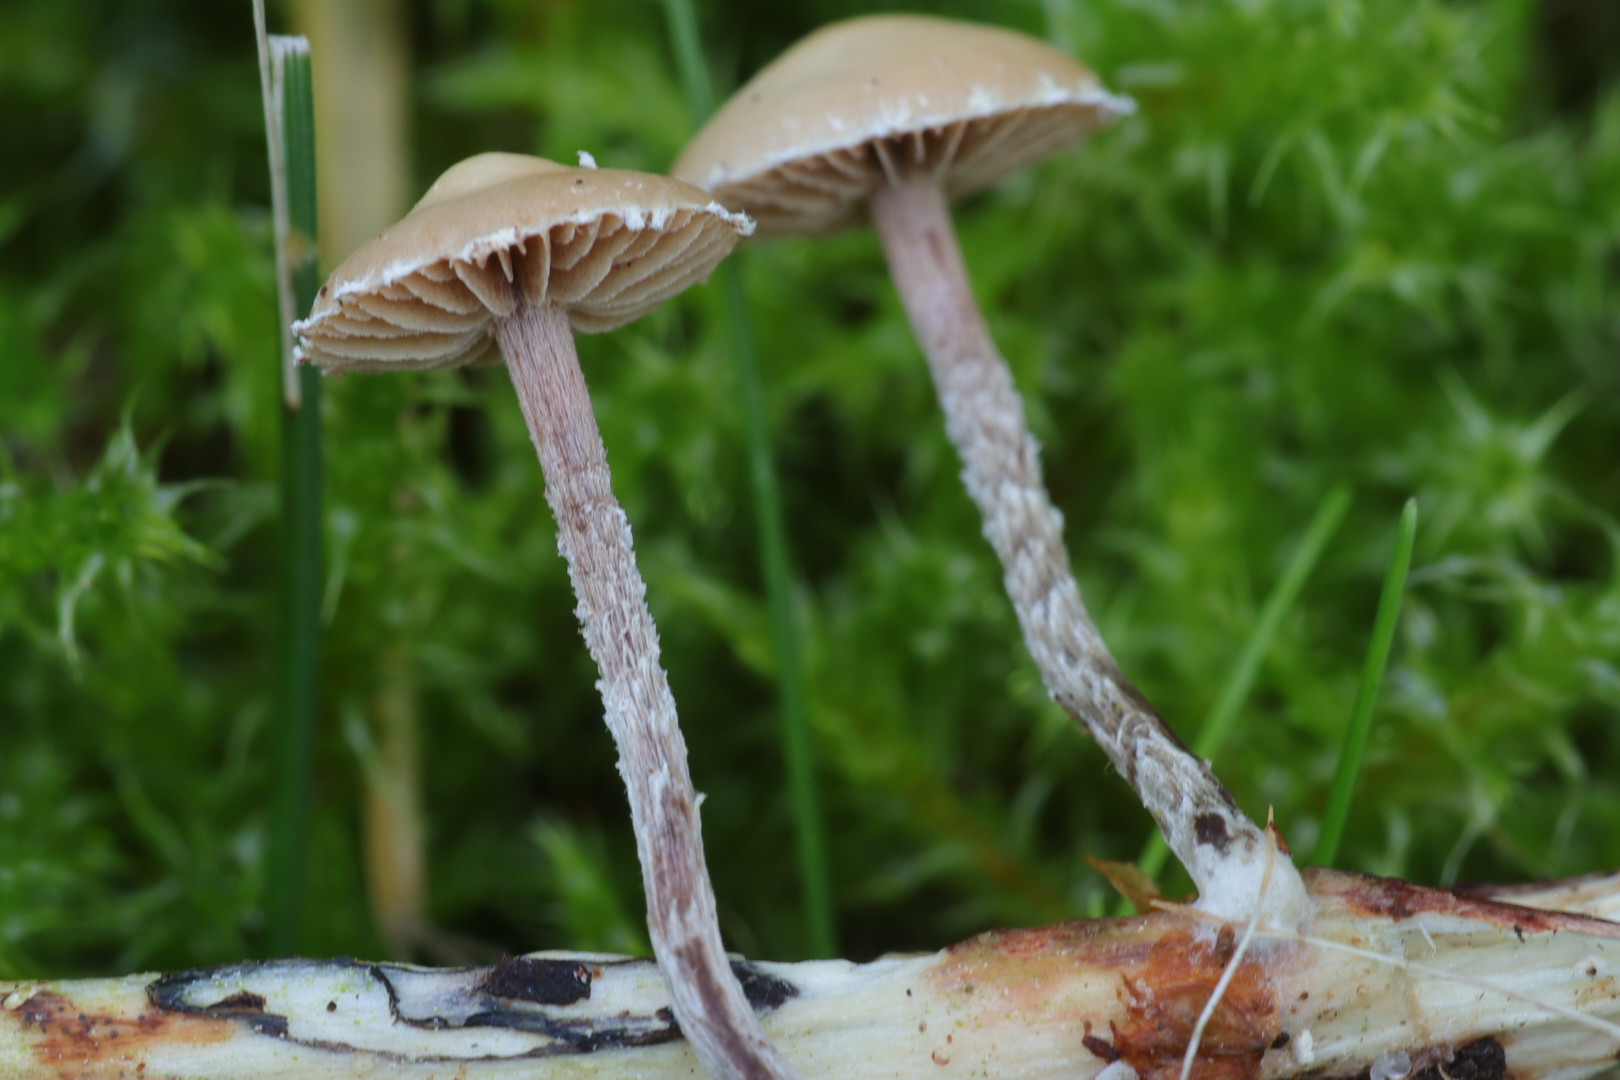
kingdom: Fungi
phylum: Basidiomycota
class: Agaricomycetes
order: Agaricales
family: Strophariaceae
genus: Deconica
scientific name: Deconica
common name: stråhat
